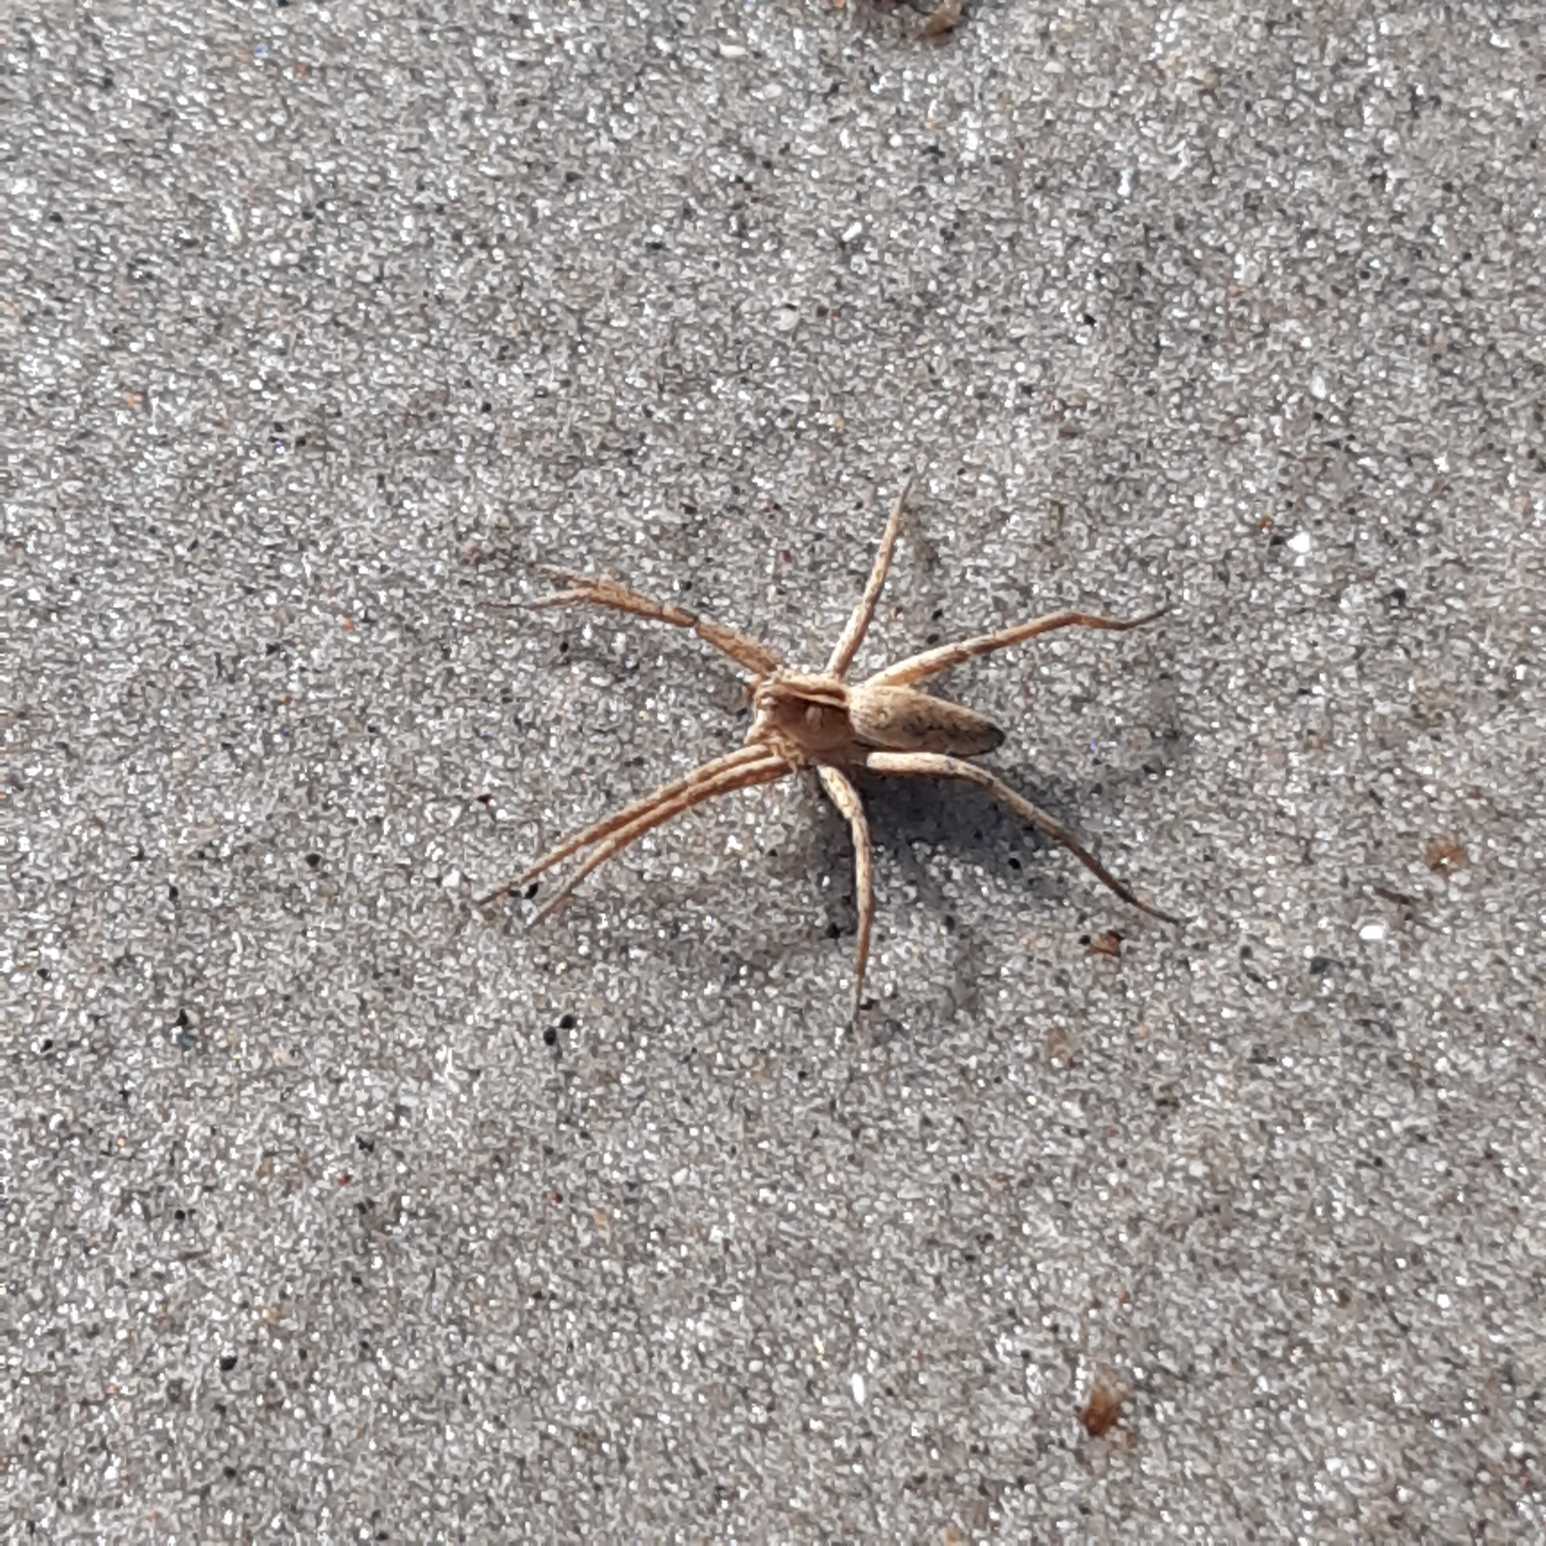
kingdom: Animalia
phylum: Arthropoda
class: Arachnida
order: Araneae
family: Pisauridae
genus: Pisaura
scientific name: Pisaura mirabilis
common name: Almindelig rovedderkop
